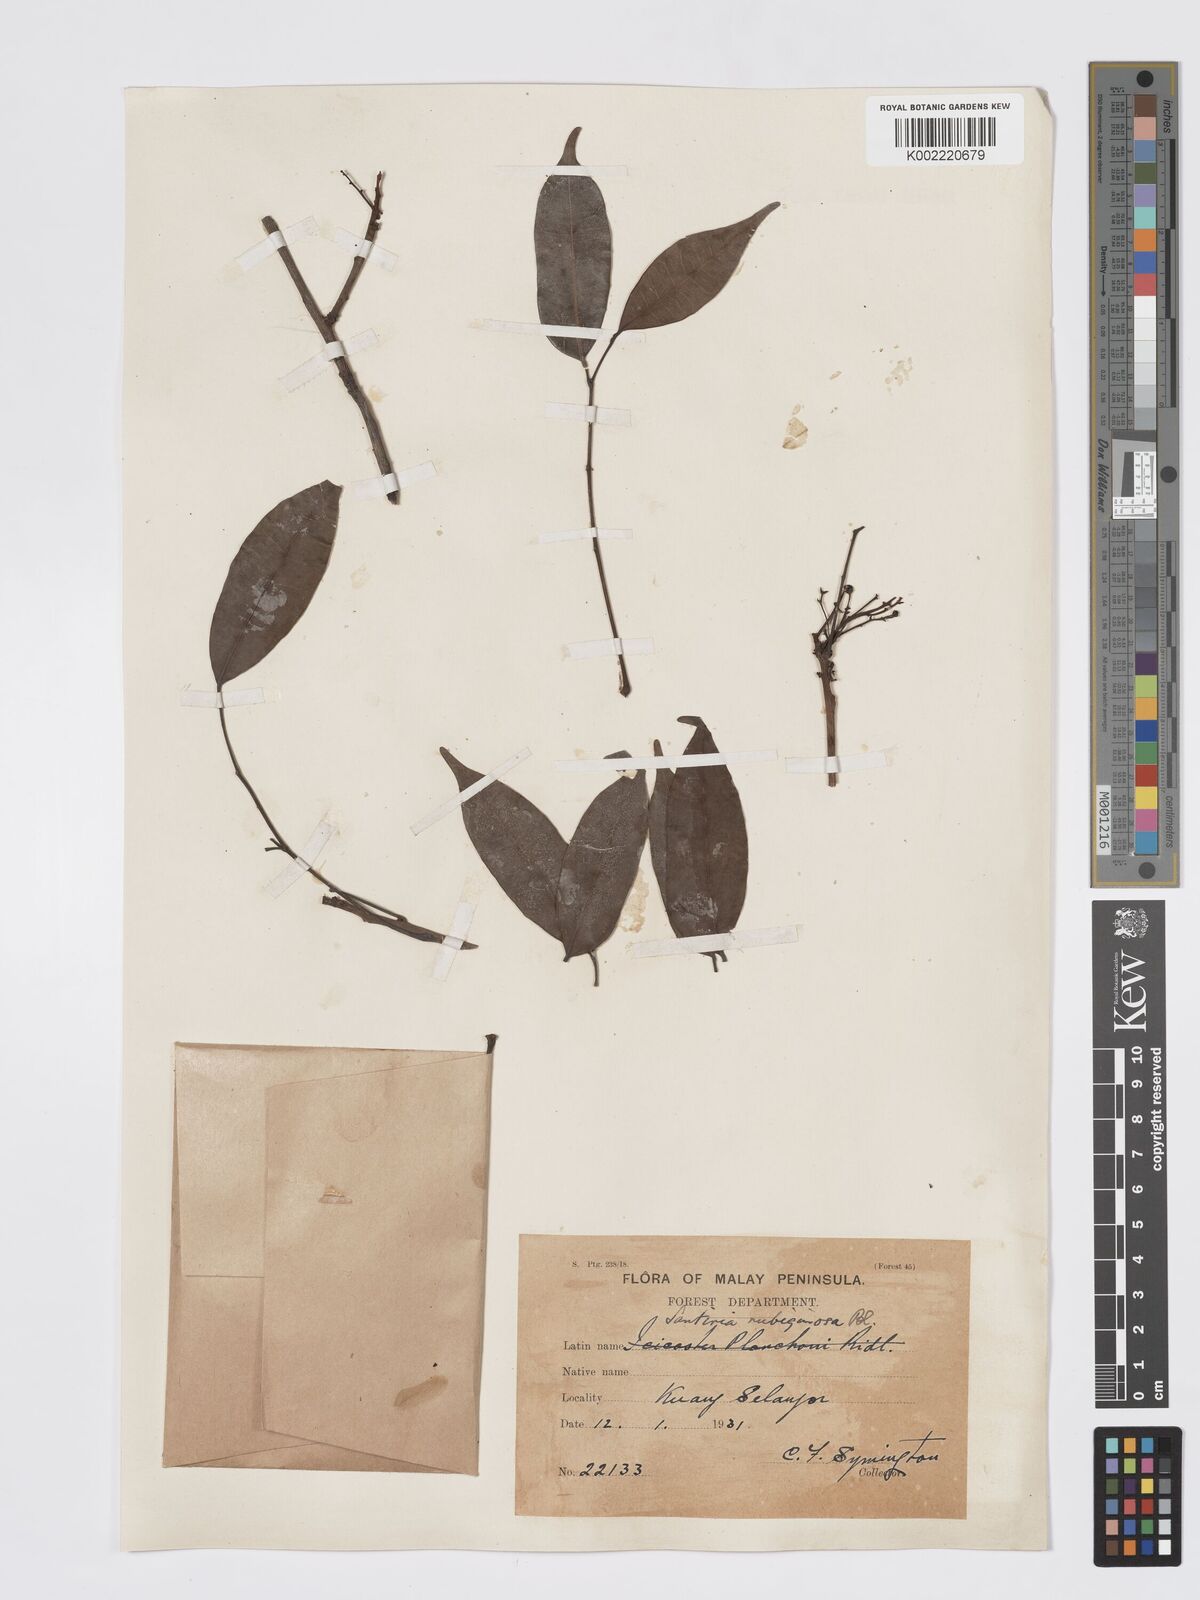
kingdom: Plantae
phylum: Tracheophyta
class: Magnoliopsida
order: Sapindales
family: Burseraceae
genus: Santiria
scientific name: Santiria rubiginosa
